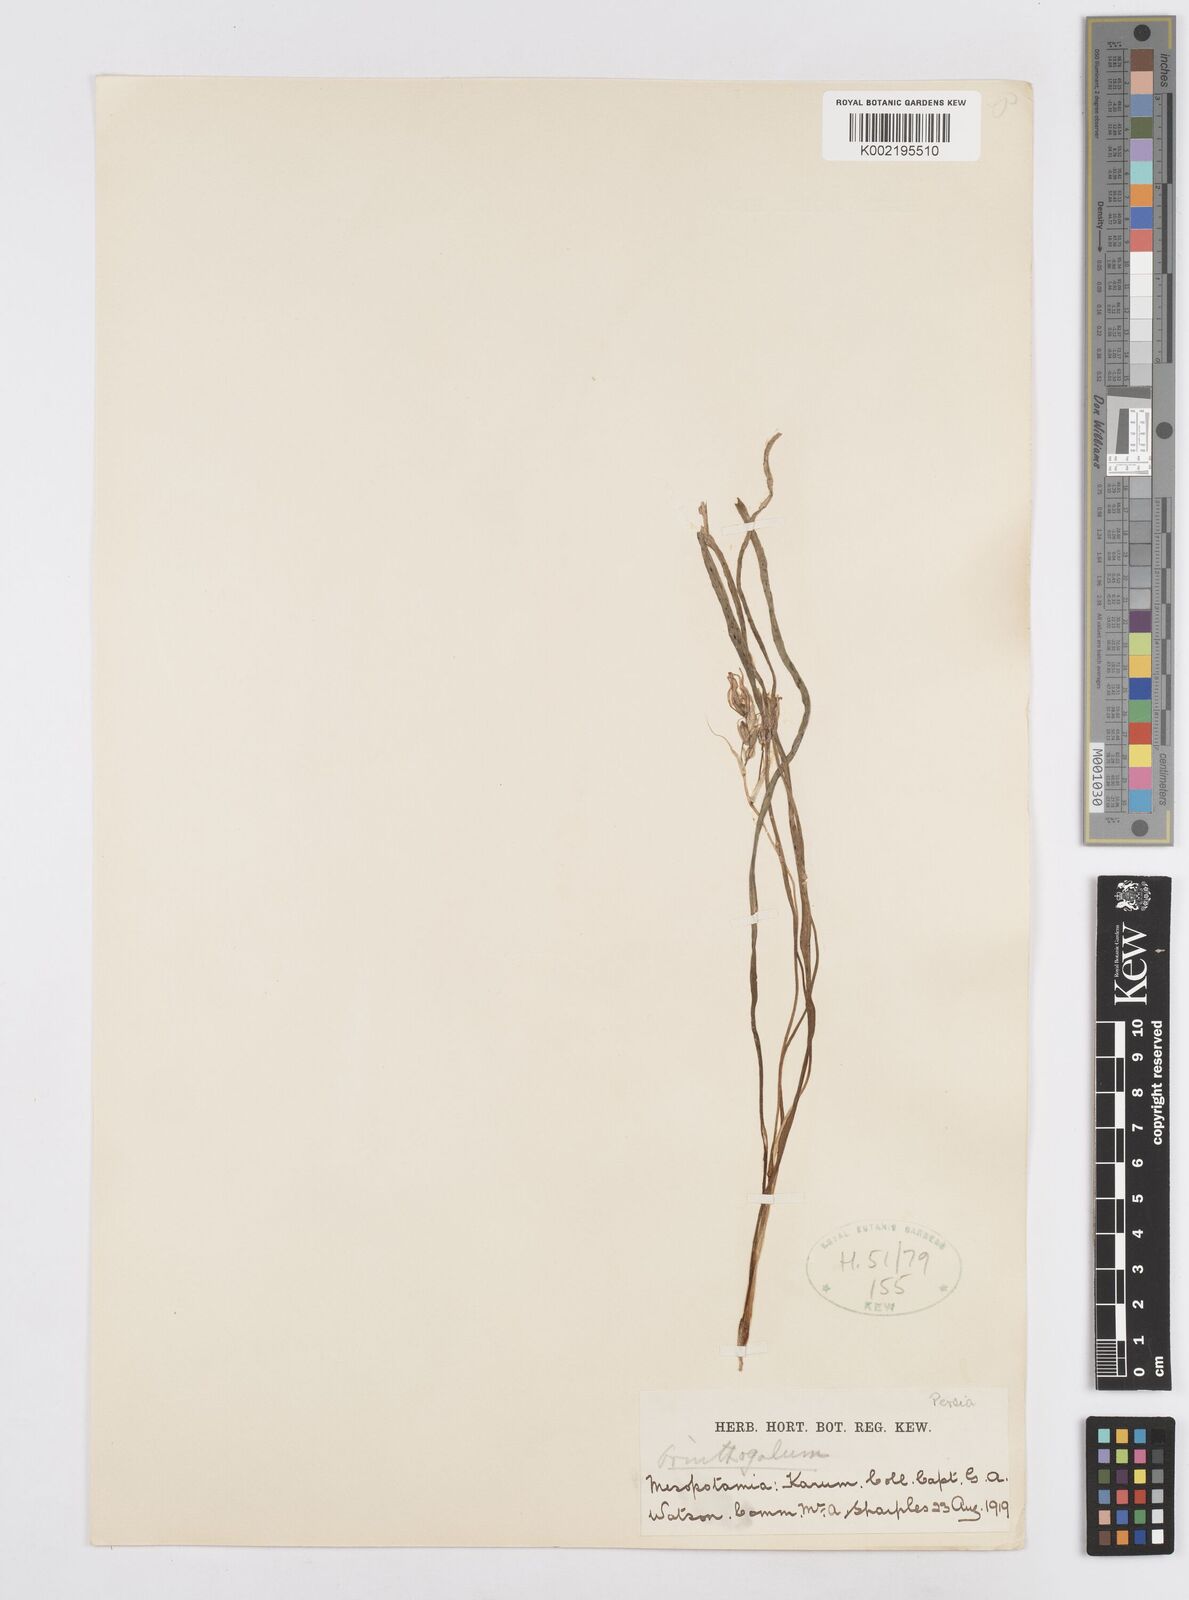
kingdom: Plantae
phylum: Tracheophyta
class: Liliopsida
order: Asparagales
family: Asparagaceae
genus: Ornithogalum
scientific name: Ornithogalum
